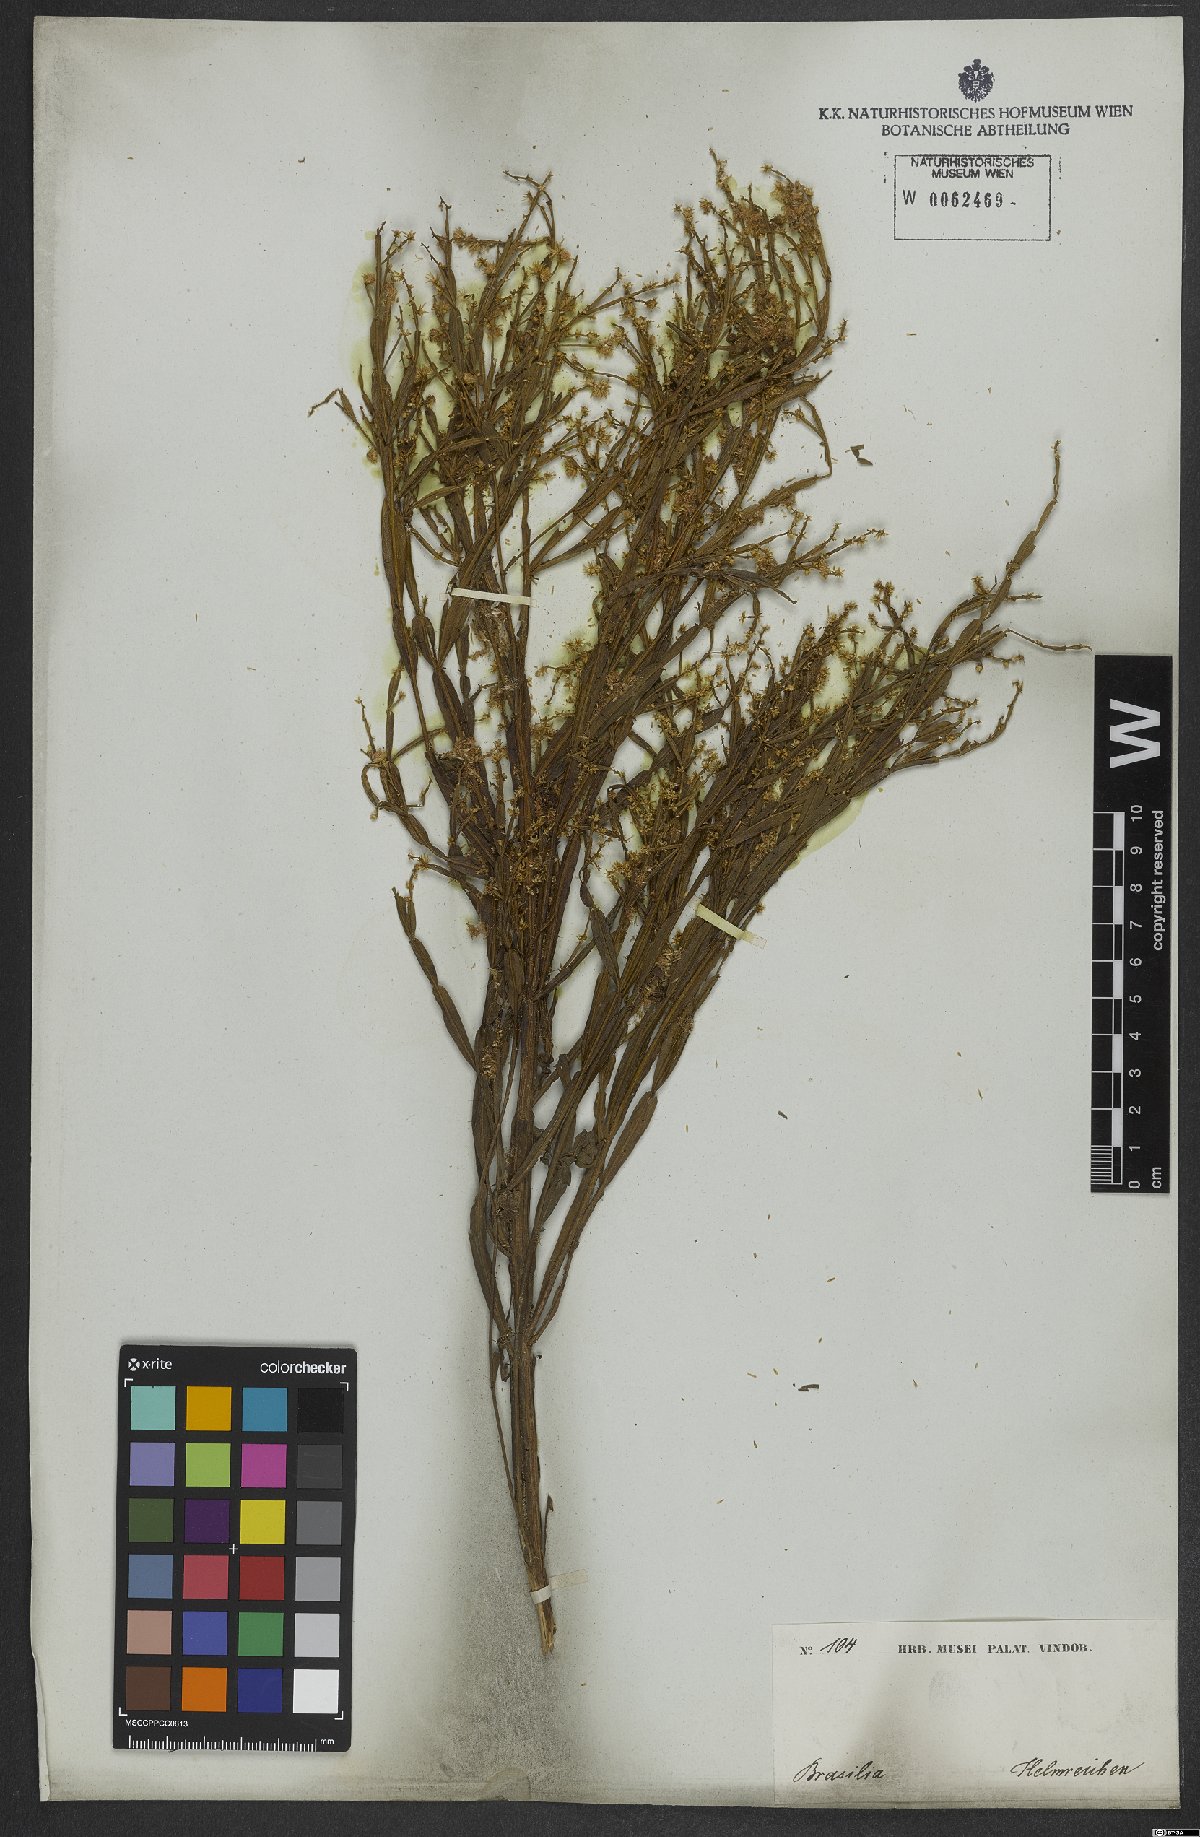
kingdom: Plantae
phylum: Tracheophyta
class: Magnoliopsida
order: Asterales
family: Asteraceae
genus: Baccharis
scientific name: Baccharis articulata
